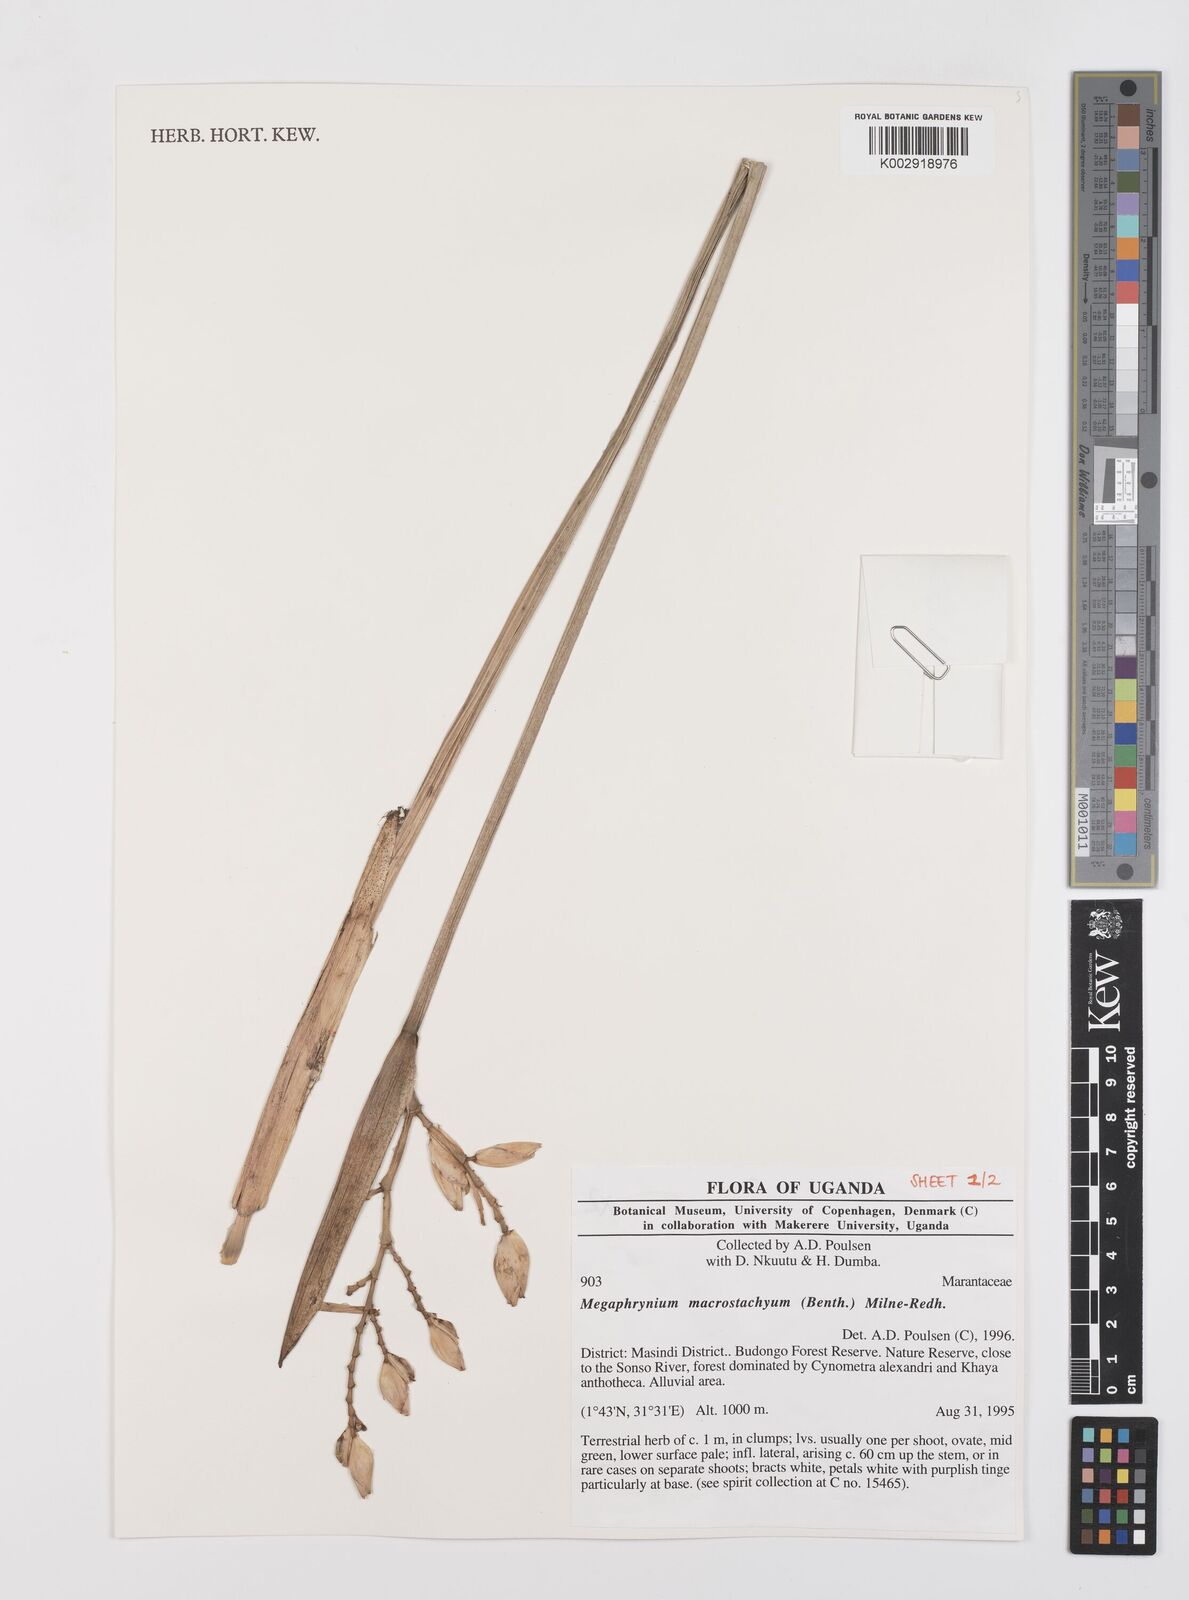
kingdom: Plantae
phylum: Tracheophyta
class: Liliopsida
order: Zingiberales
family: Marantaceae
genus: Megaphrynium
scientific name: Megaphrynium macrostachyum
